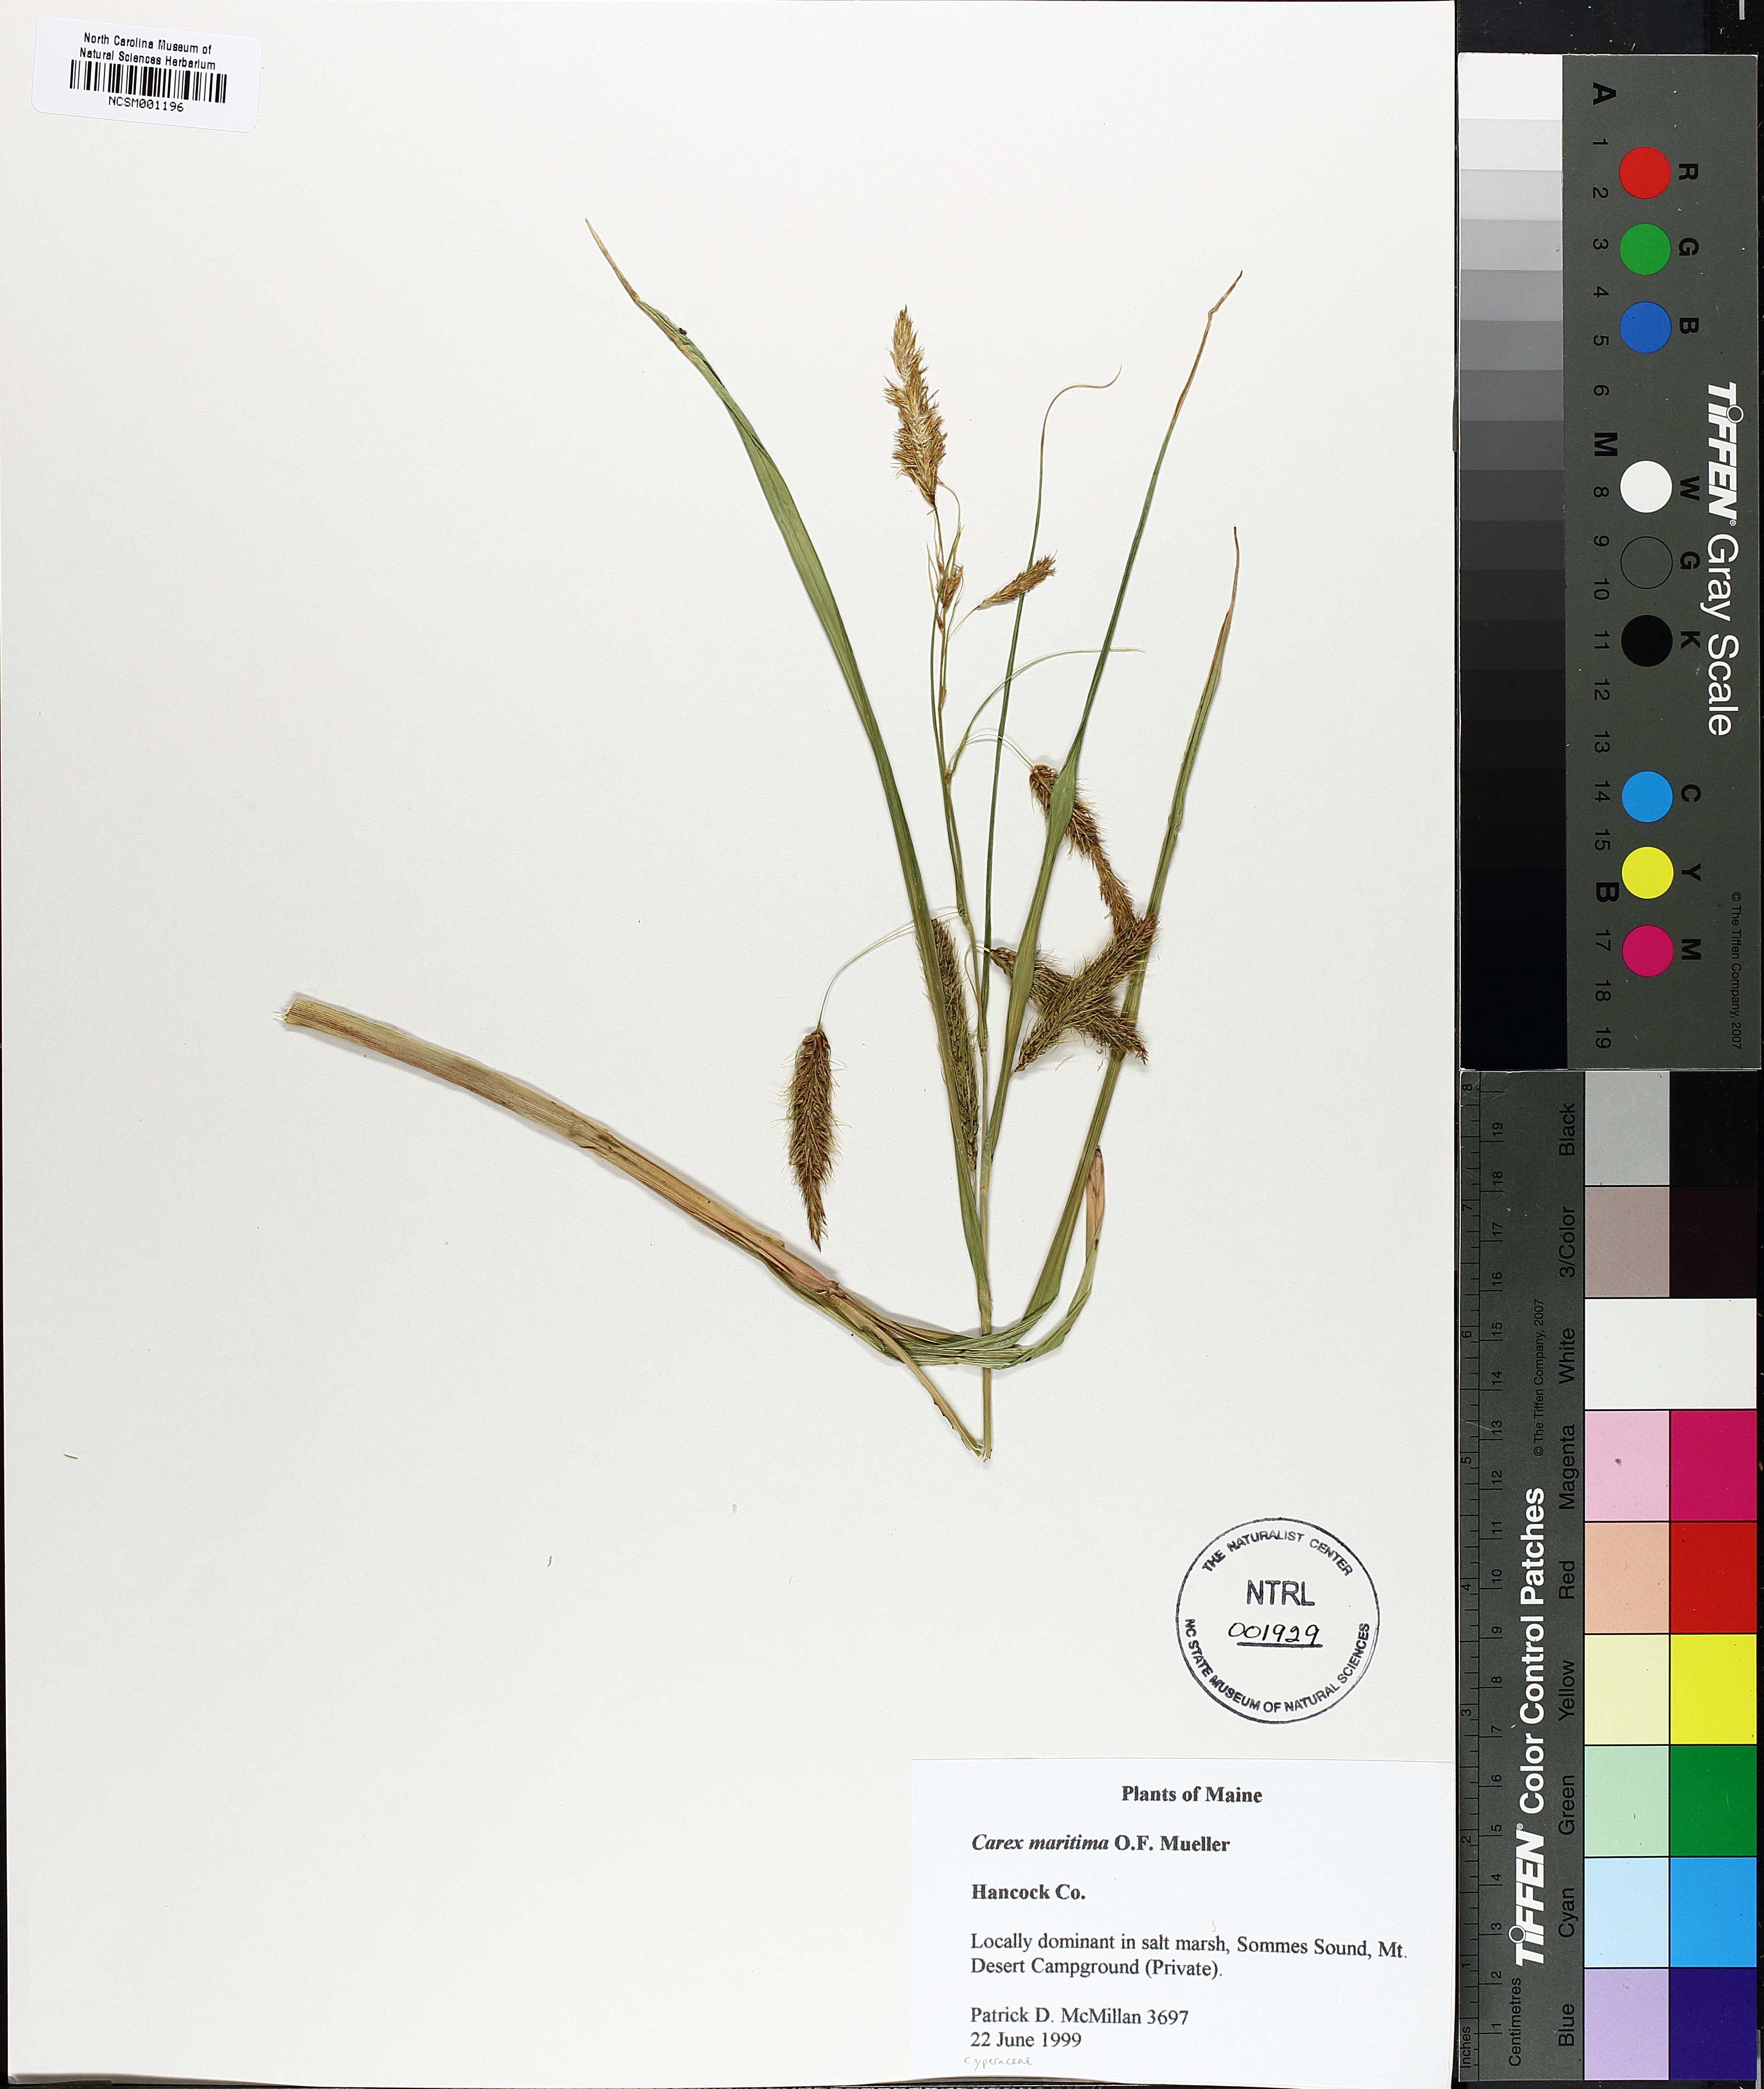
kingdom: Plantae
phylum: Tracheophyta
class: Liliopsida
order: Poales
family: Cyperaceae
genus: Carex
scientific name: Carex maritima
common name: Curved sedge
